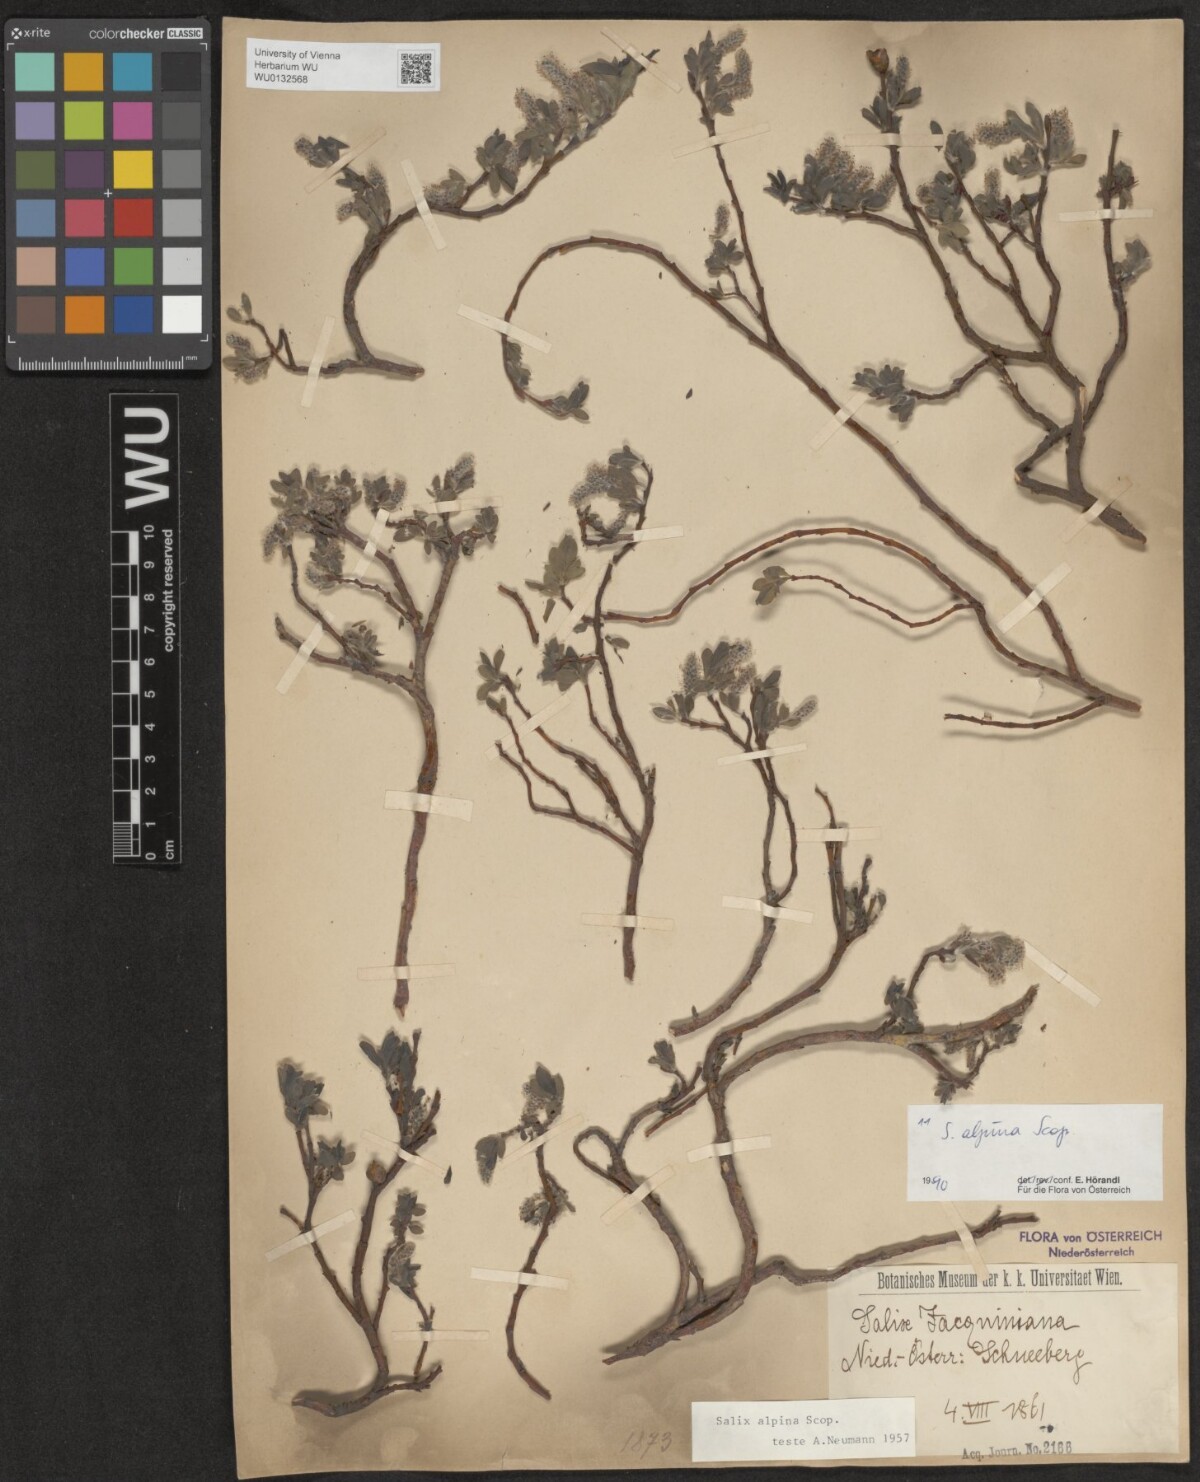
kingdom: Plantae
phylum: Tracheophyta
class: Magnoliopsida
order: Malpighiales
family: Salicaceae
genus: Salix
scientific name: Salix alpina
